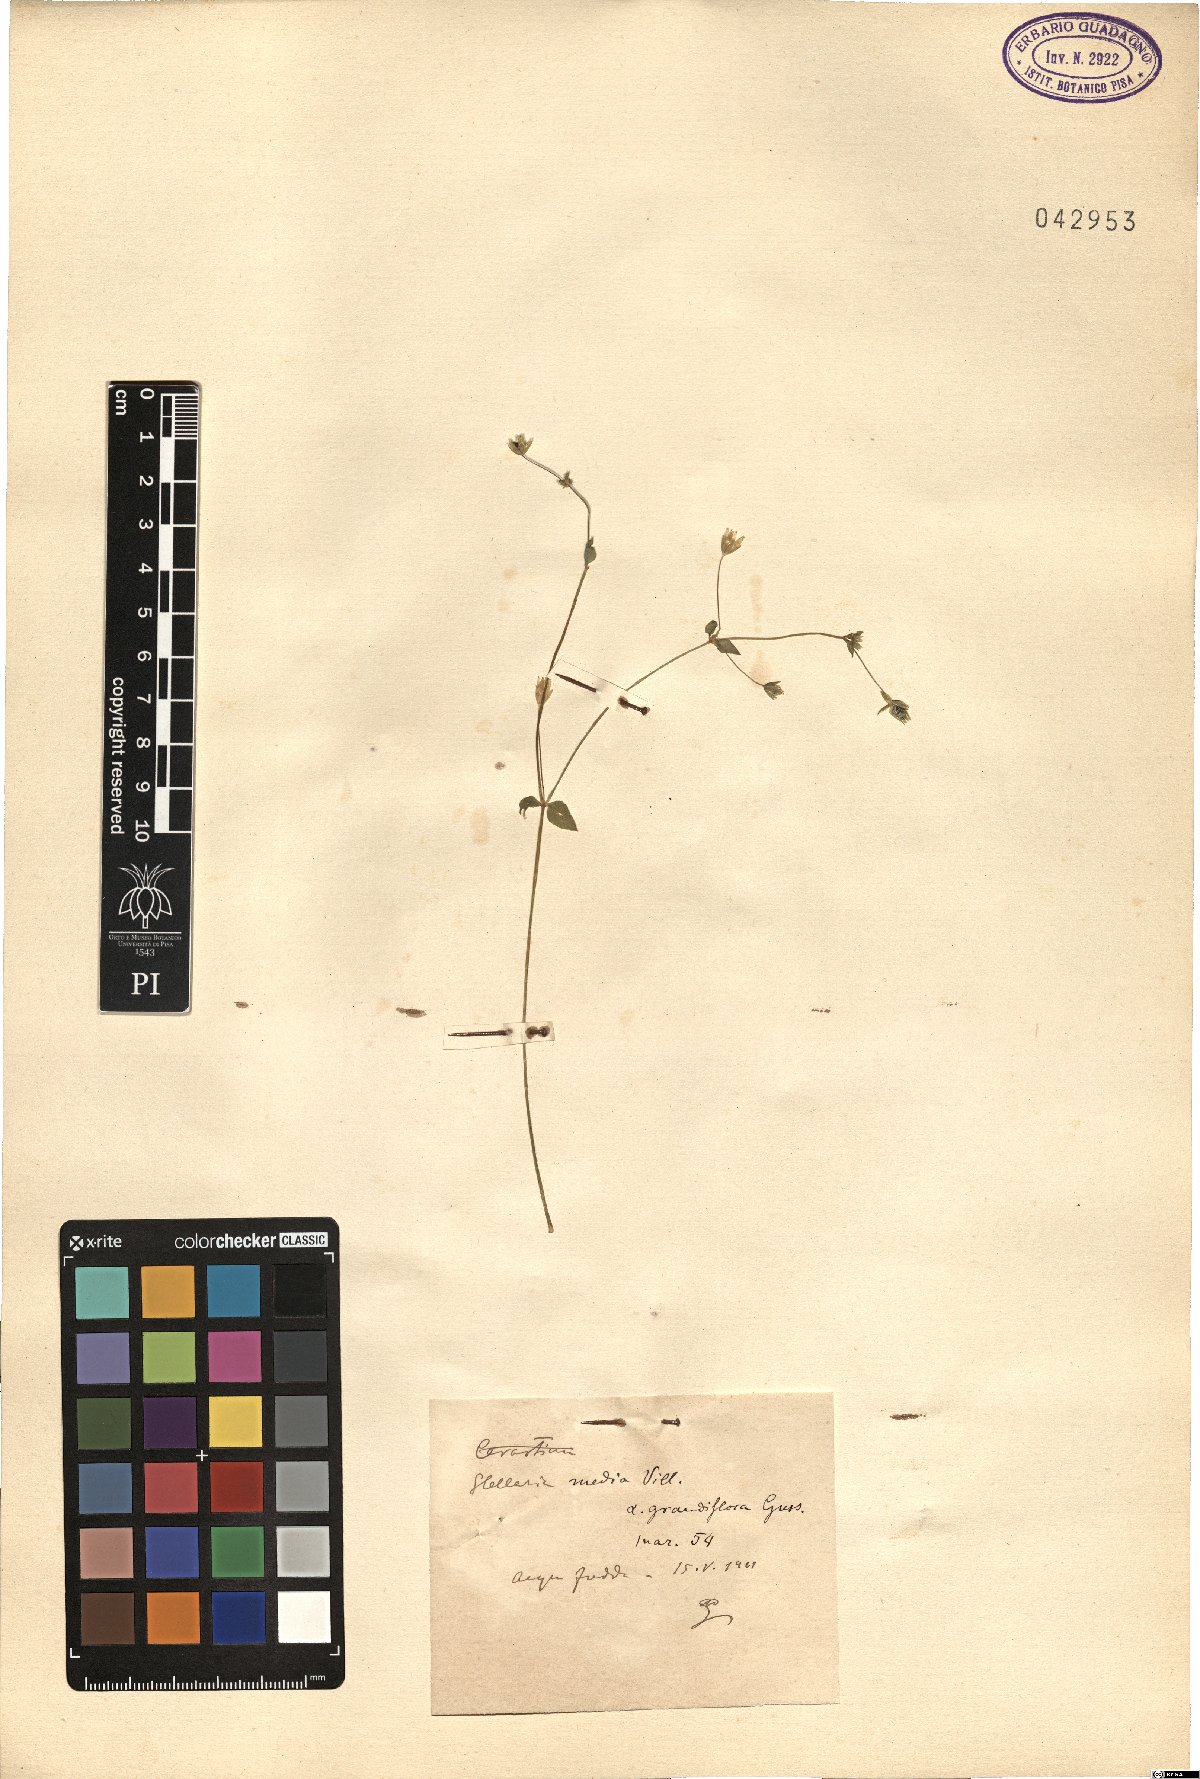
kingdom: Plantae
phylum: Tracheophyta
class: Magnoliopsida
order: Caryophyllales
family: Caryophyllaceae
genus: Stellaria
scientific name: Stellaria media
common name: Common chickweed
